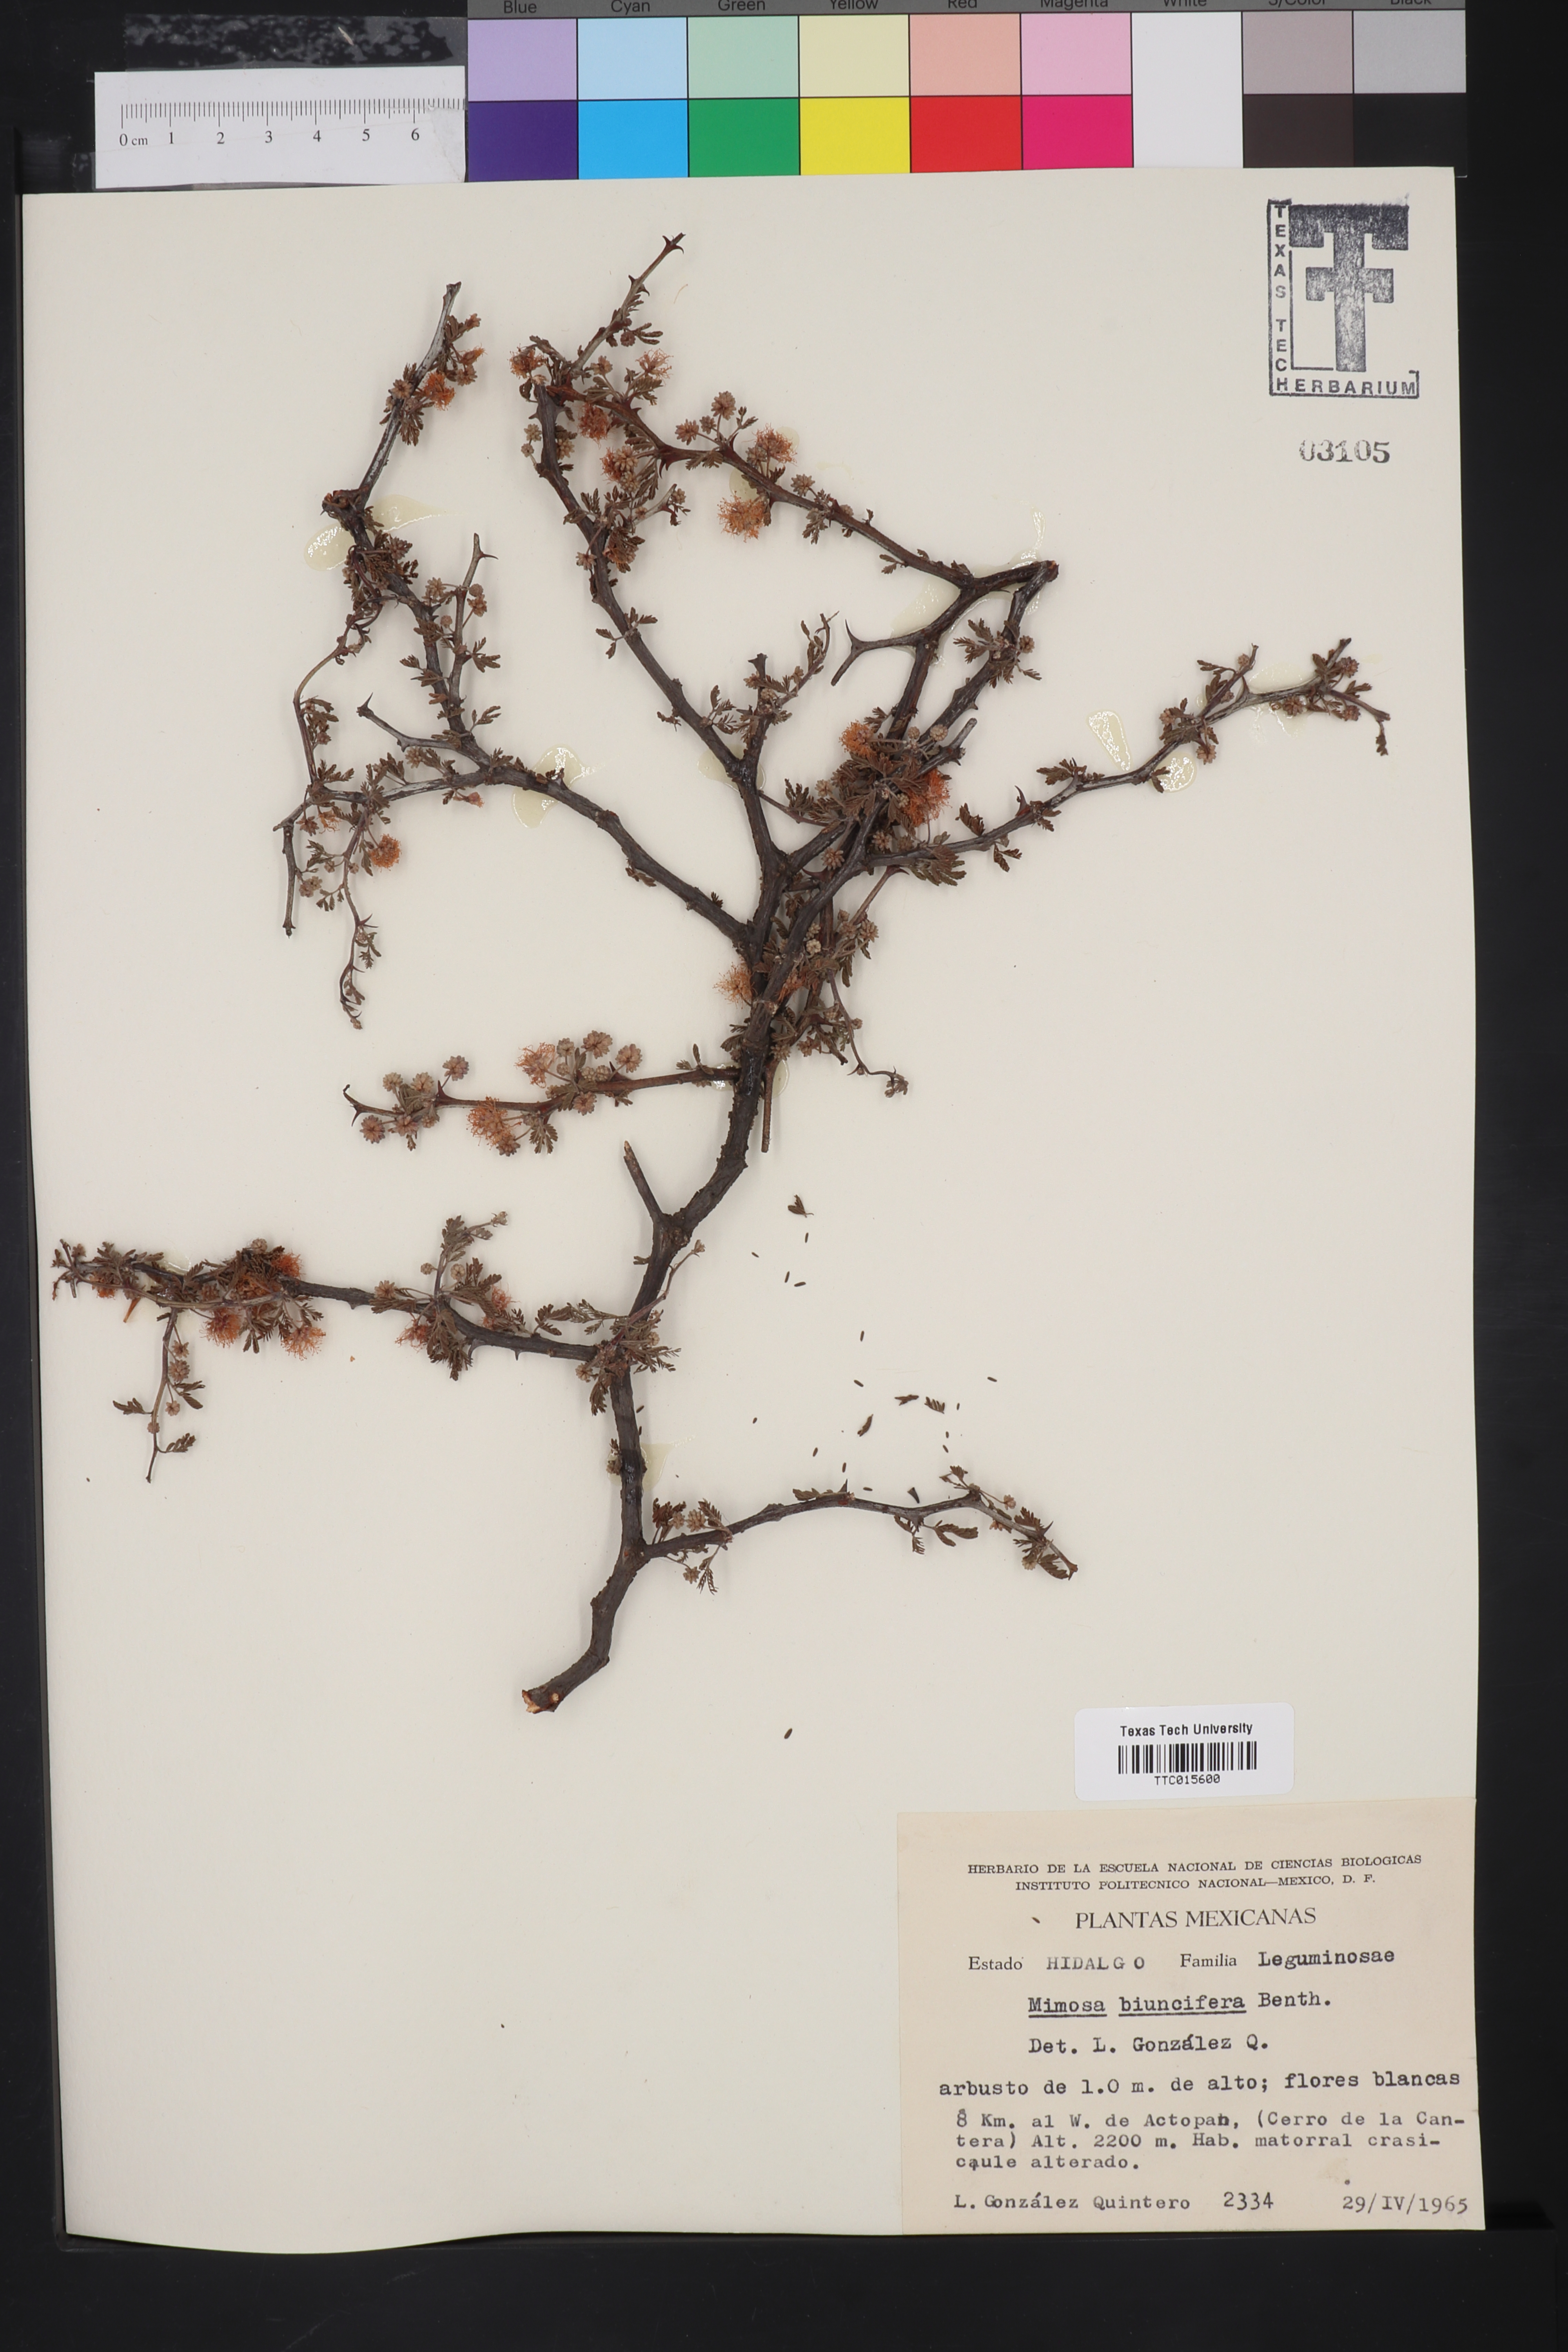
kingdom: Plantae
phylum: Tracheophyta
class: Magnoliopsida
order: Fabales
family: Fabaceae
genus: Mimosa
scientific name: Mimosa biuncifera
